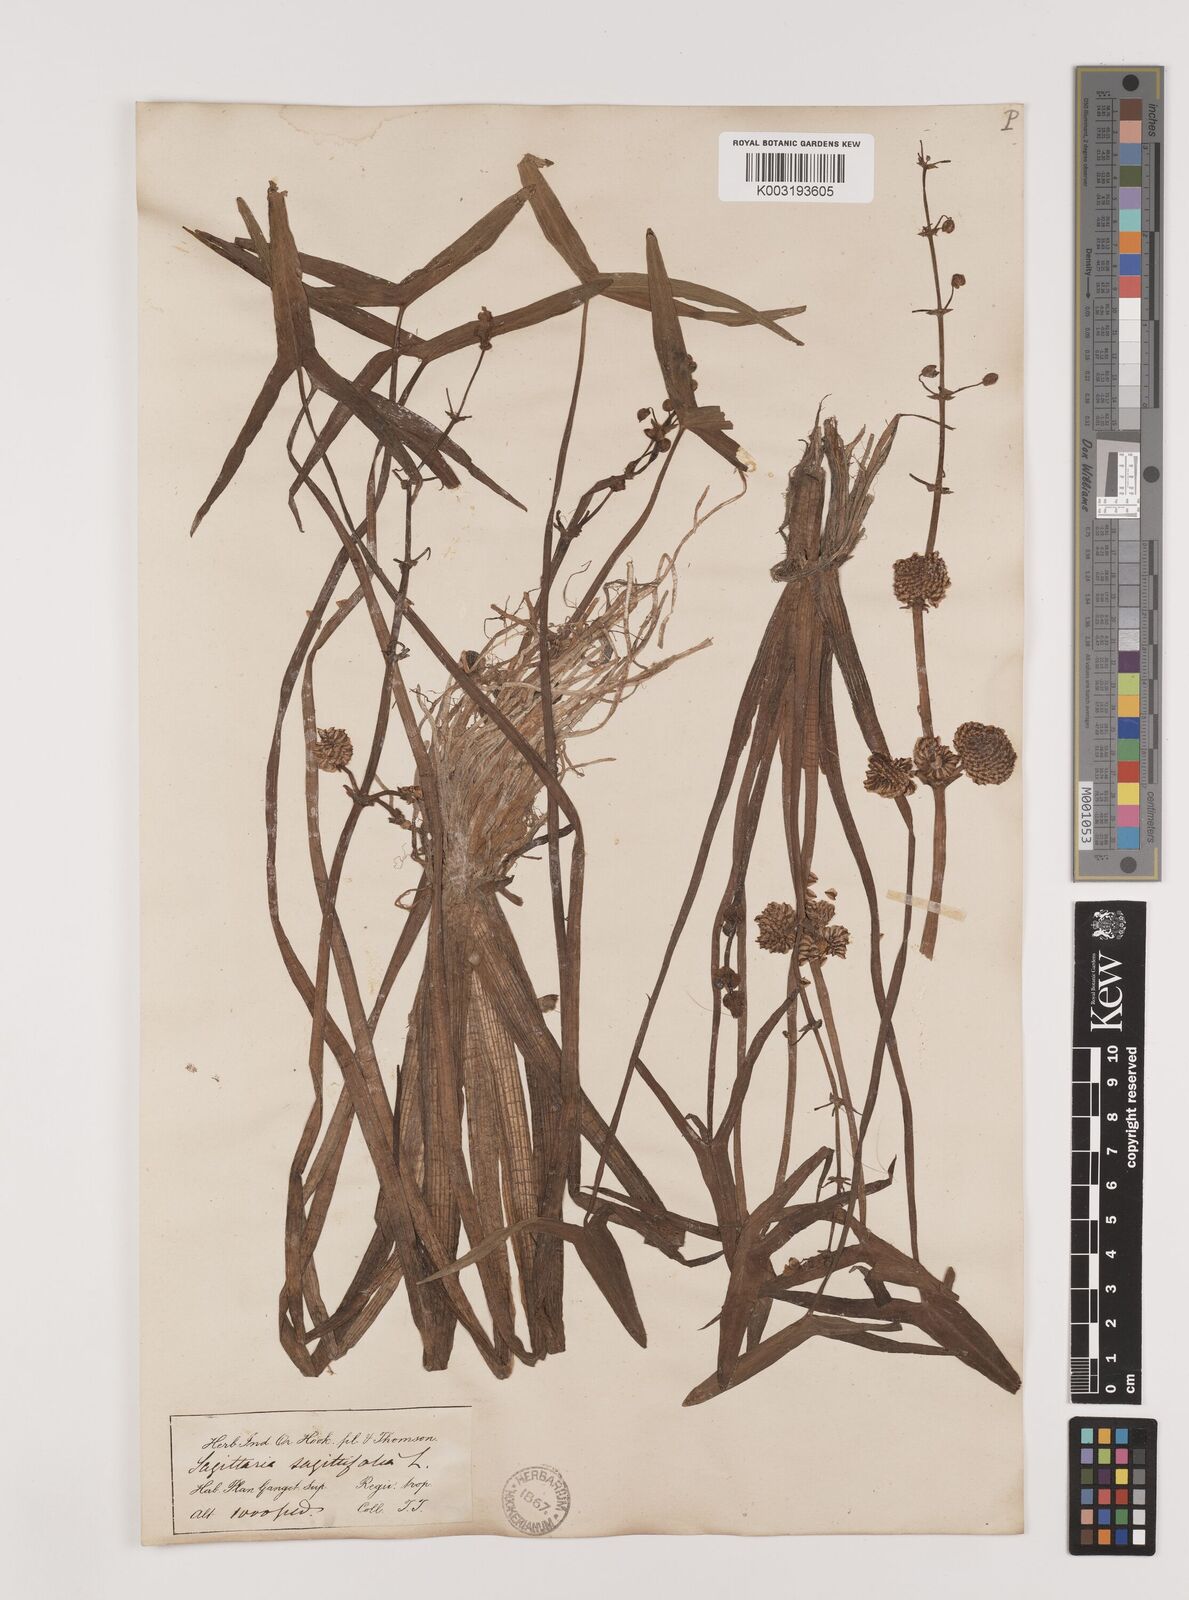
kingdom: Plantae
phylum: Tracheophyta
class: Liliopsida
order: Alismatales
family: Alismataceae
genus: Sagittaria
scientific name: Sagittaria sagittifolia
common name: Arrowhead
